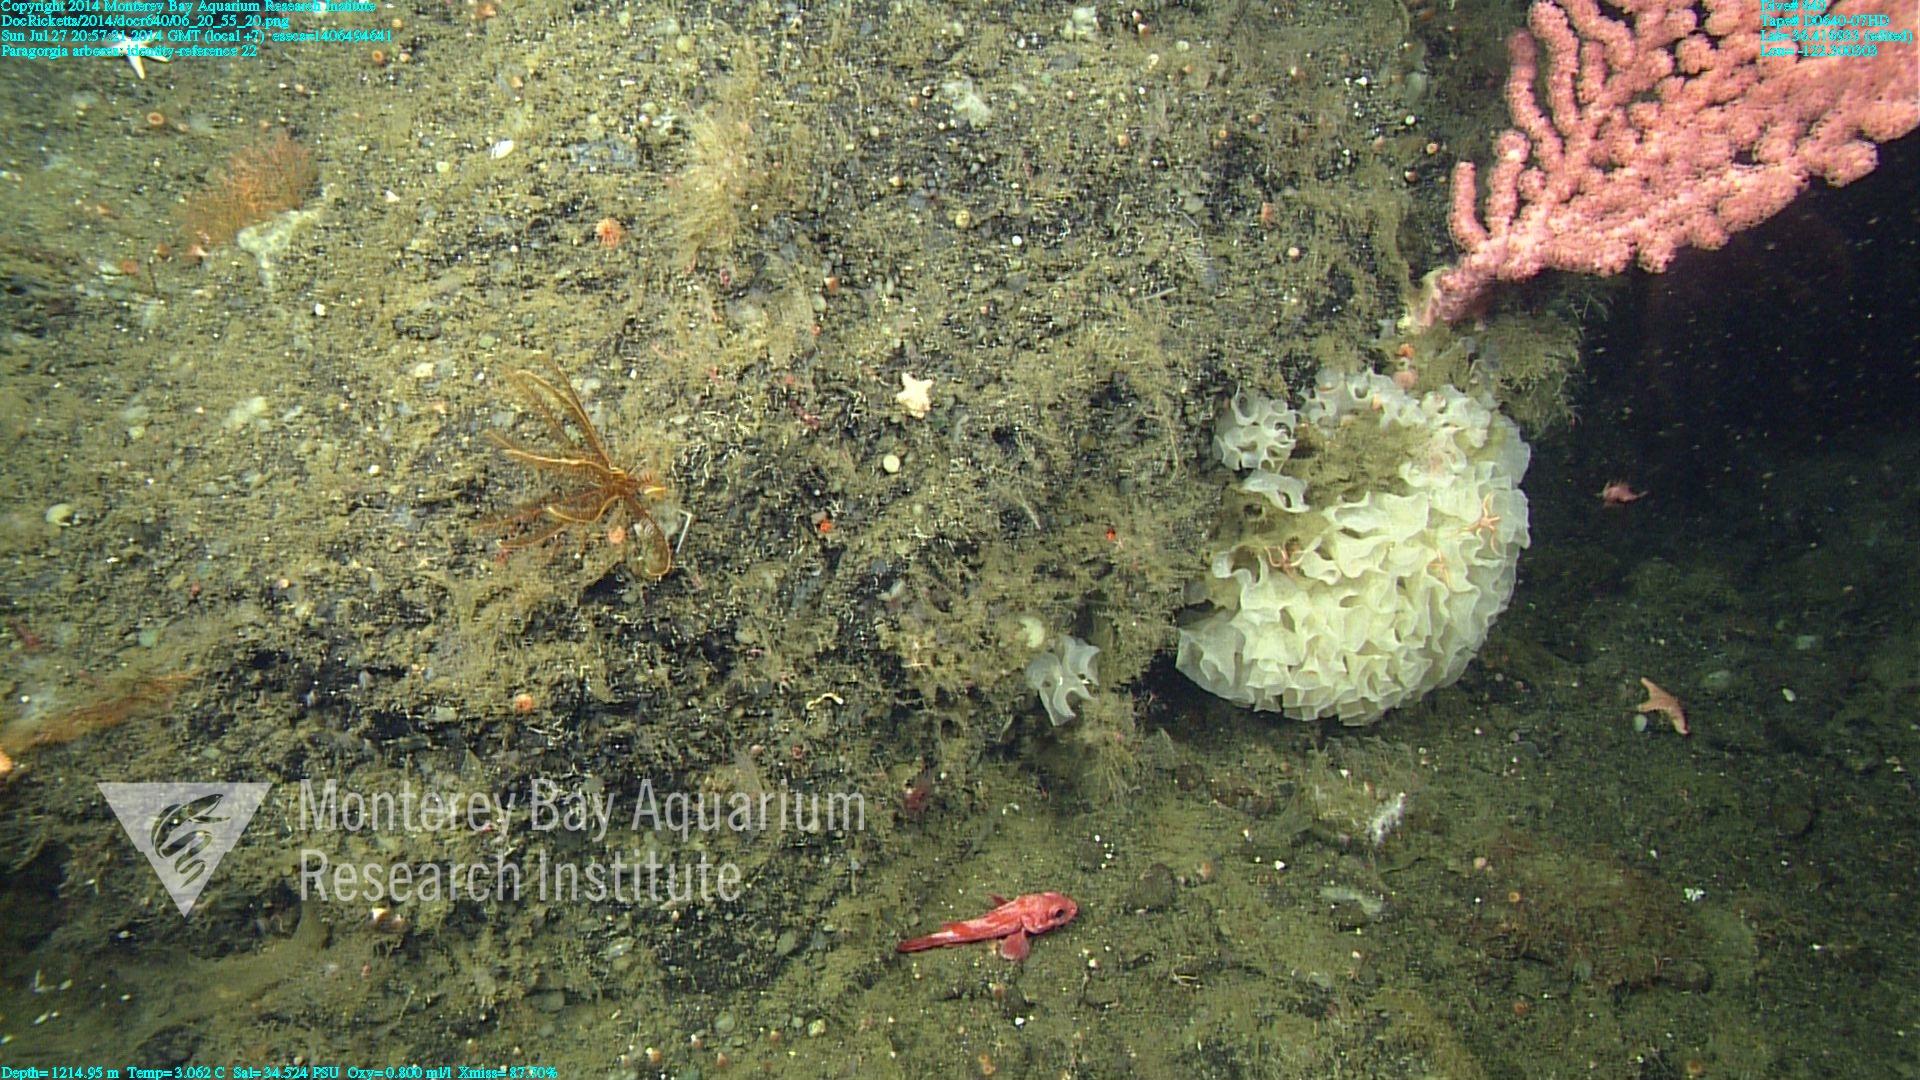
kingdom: Animalia
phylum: Cnidaria
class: Anthozoa
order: Scleralcyonacea
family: Coralliidae
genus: Paragorgia
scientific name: Paragorgia arborea
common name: Bubble gum coral
